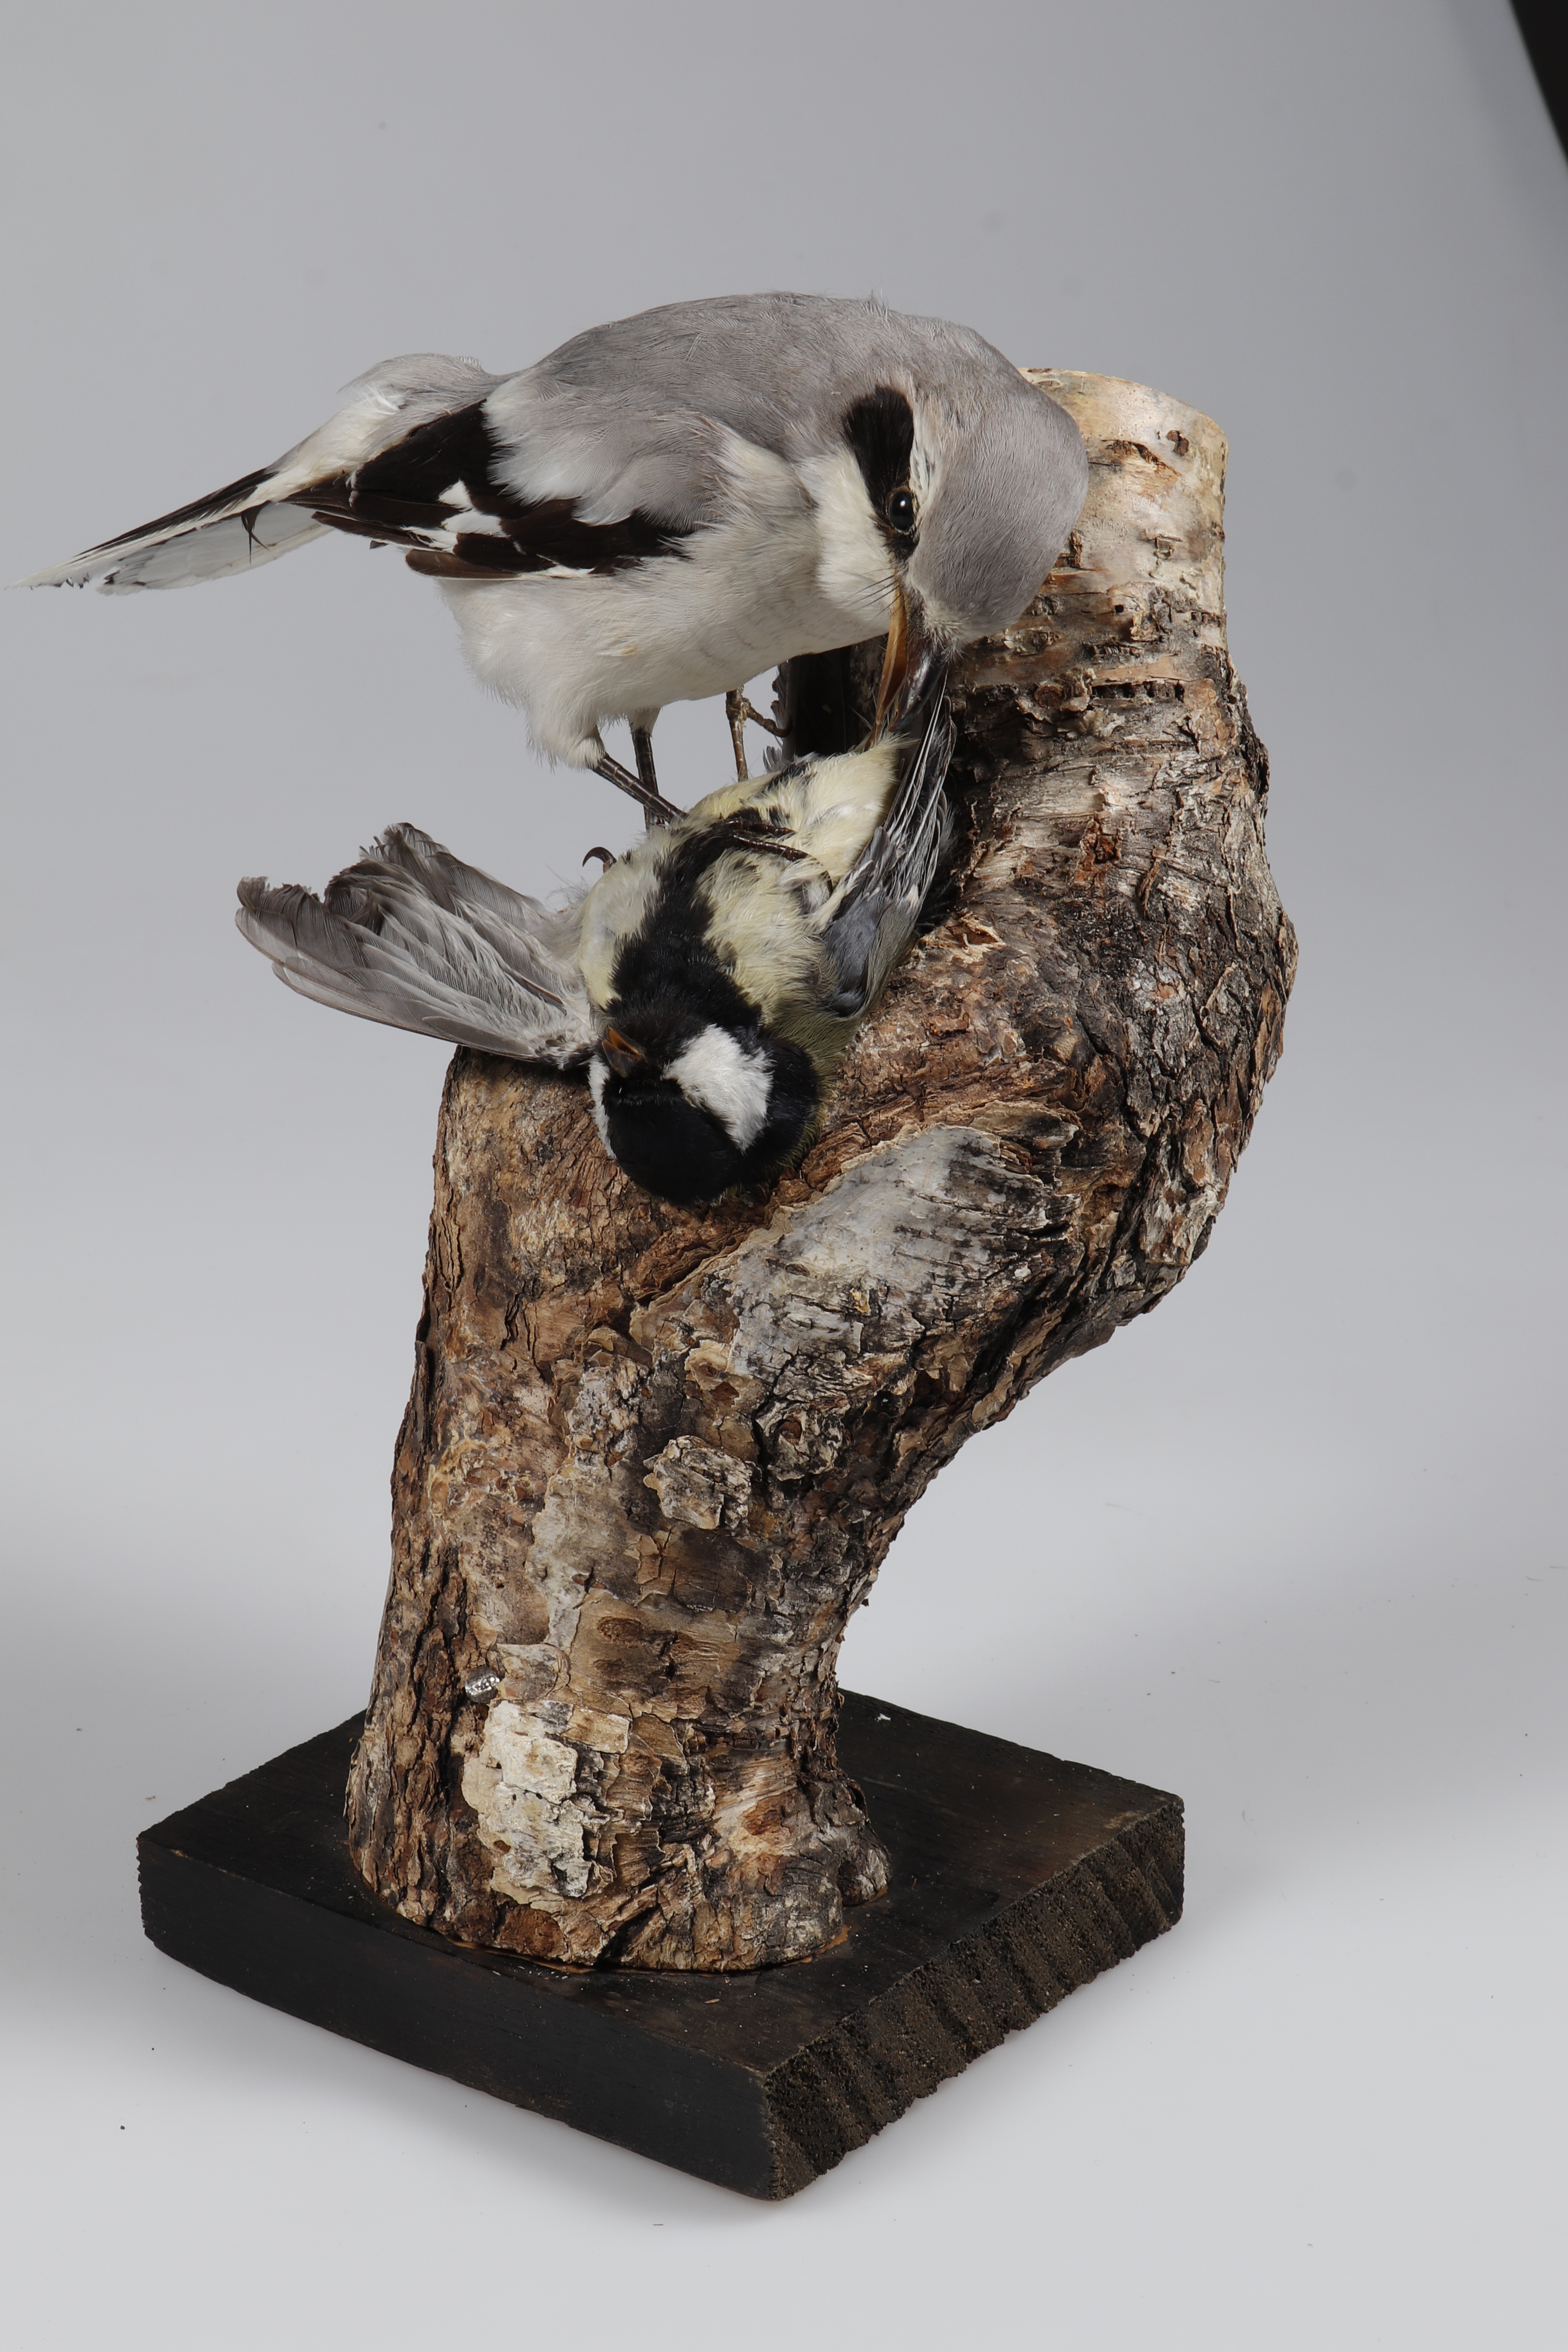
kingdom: Animalia
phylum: Chordata
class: Aves
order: Passeriformes
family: Laniidae
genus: Lanius
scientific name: Lanius excubitor
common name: Great grey shrike
